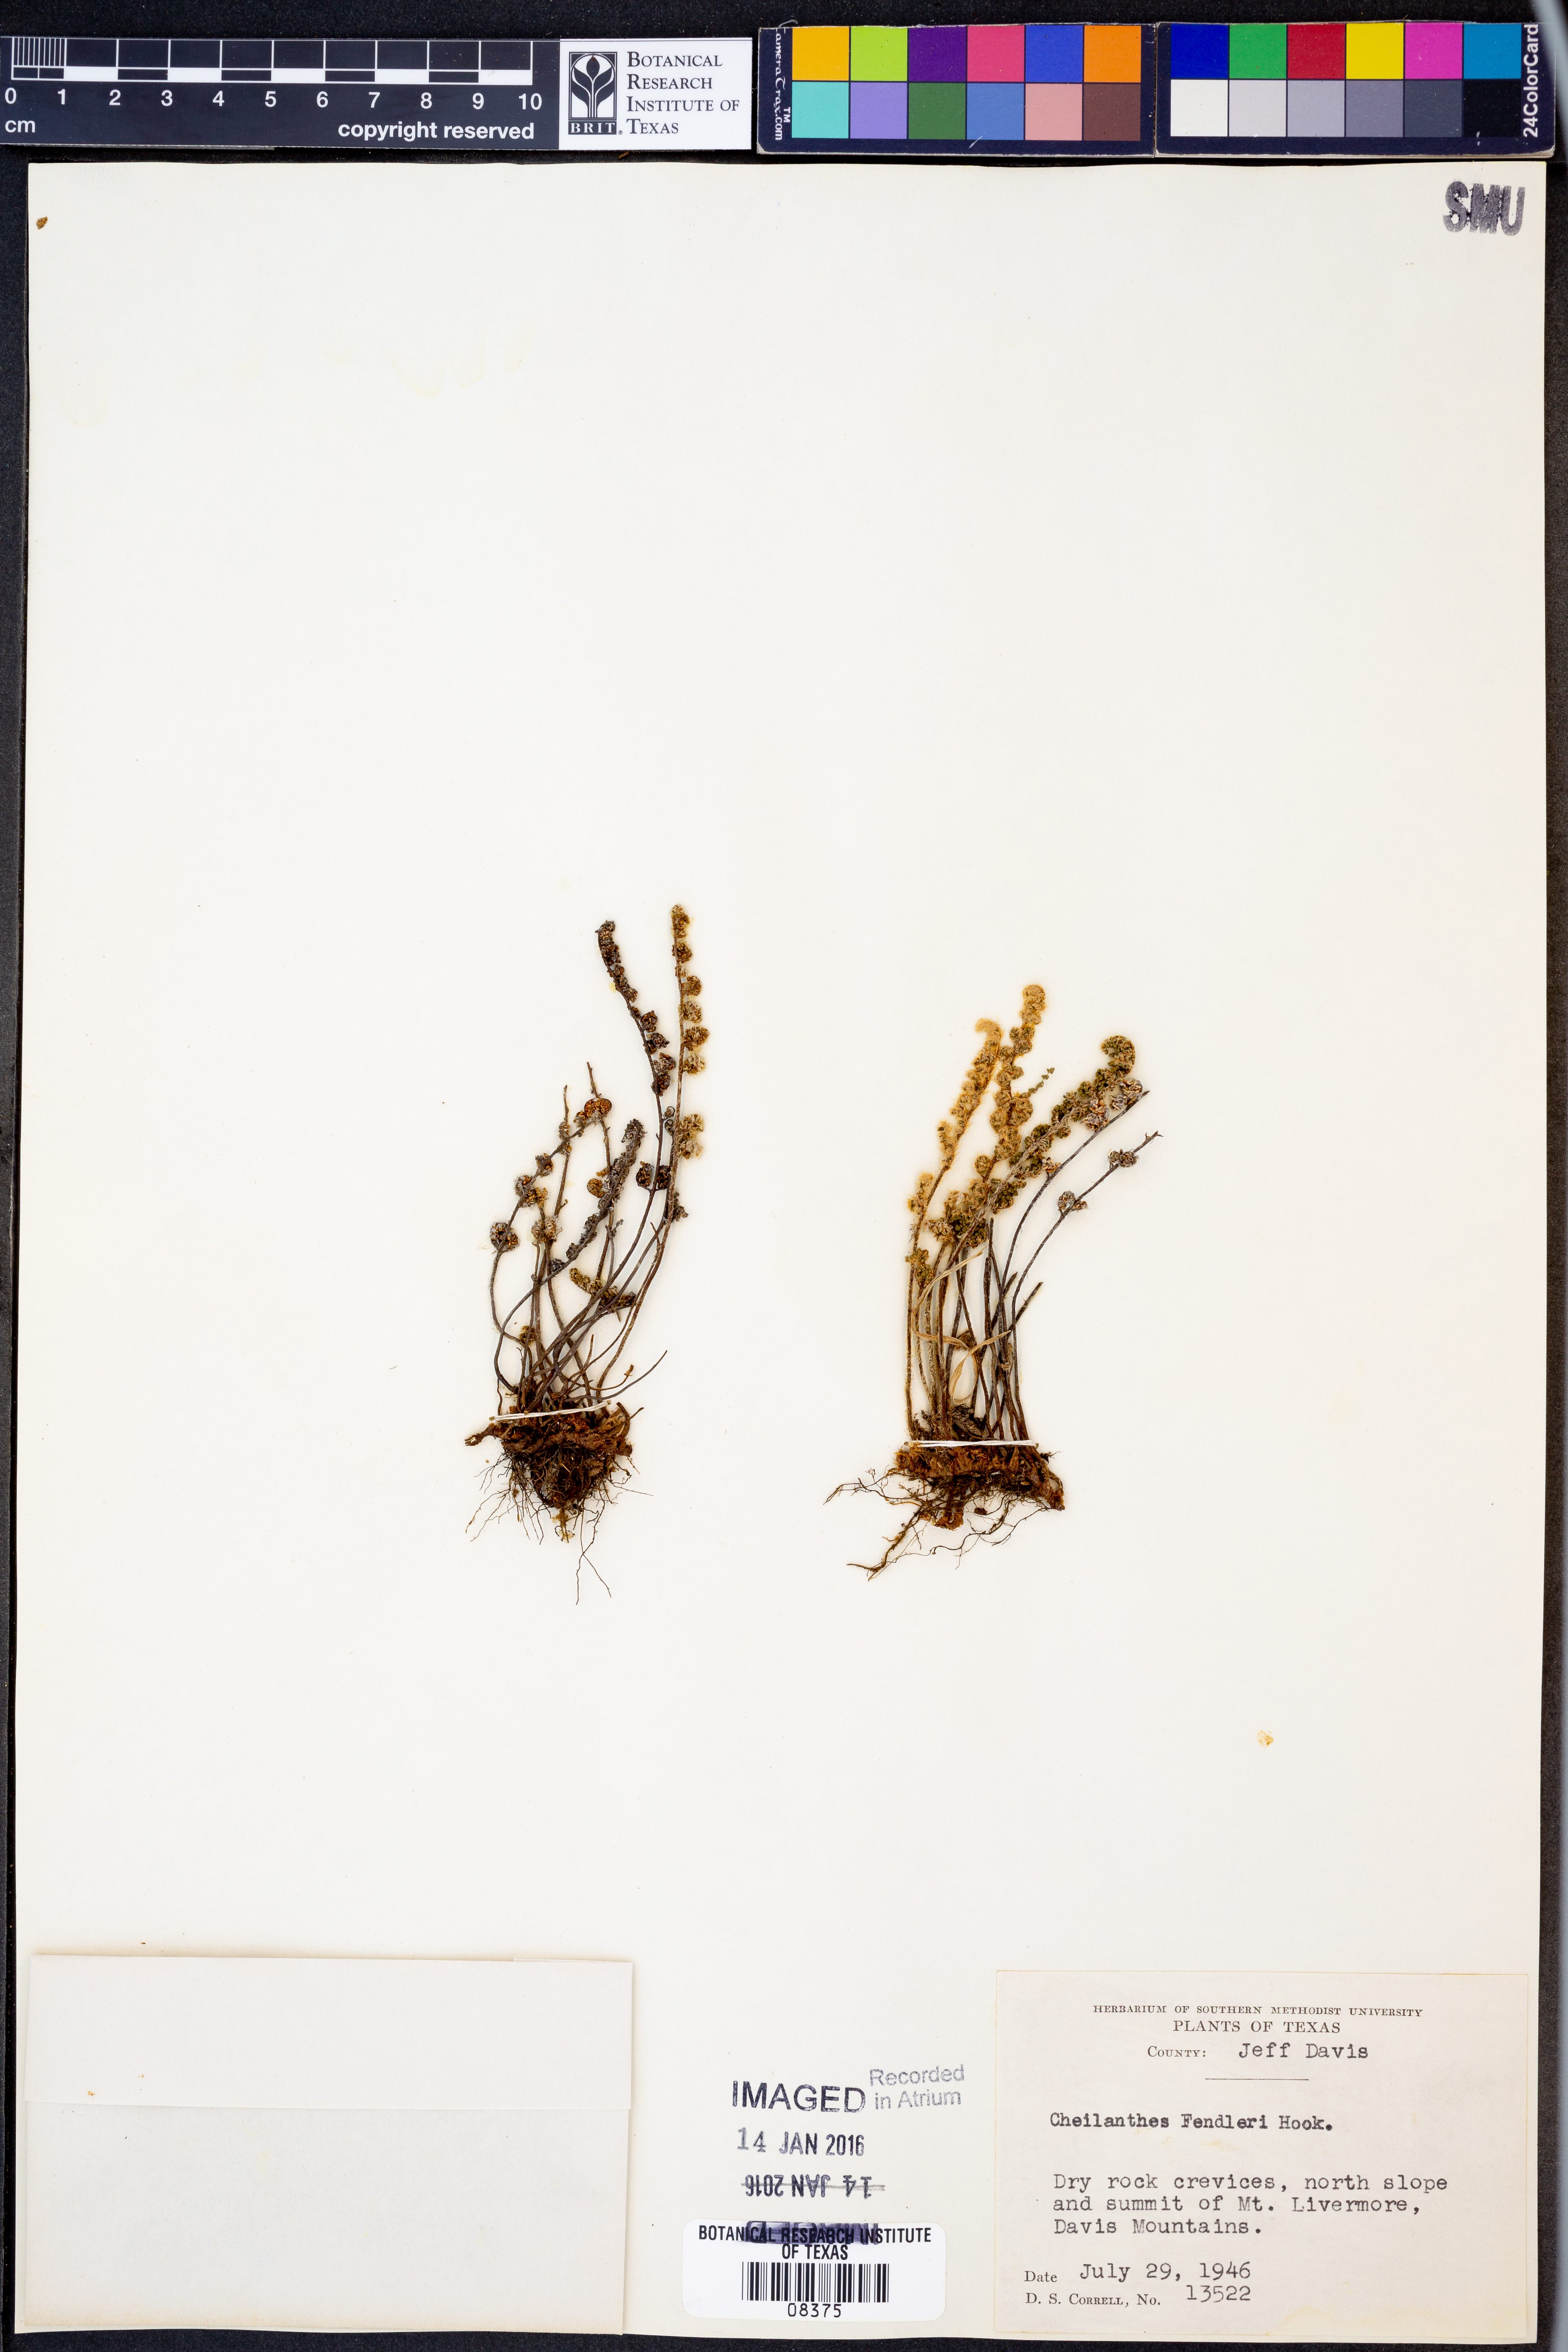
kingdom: Plantae
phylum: Tracheophyta
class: Polypodiopsida
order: Polypodiales
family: Pteridaceae
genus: Myriopteris
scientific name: Myriopteris fendleri
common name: Fendler's lip fern
